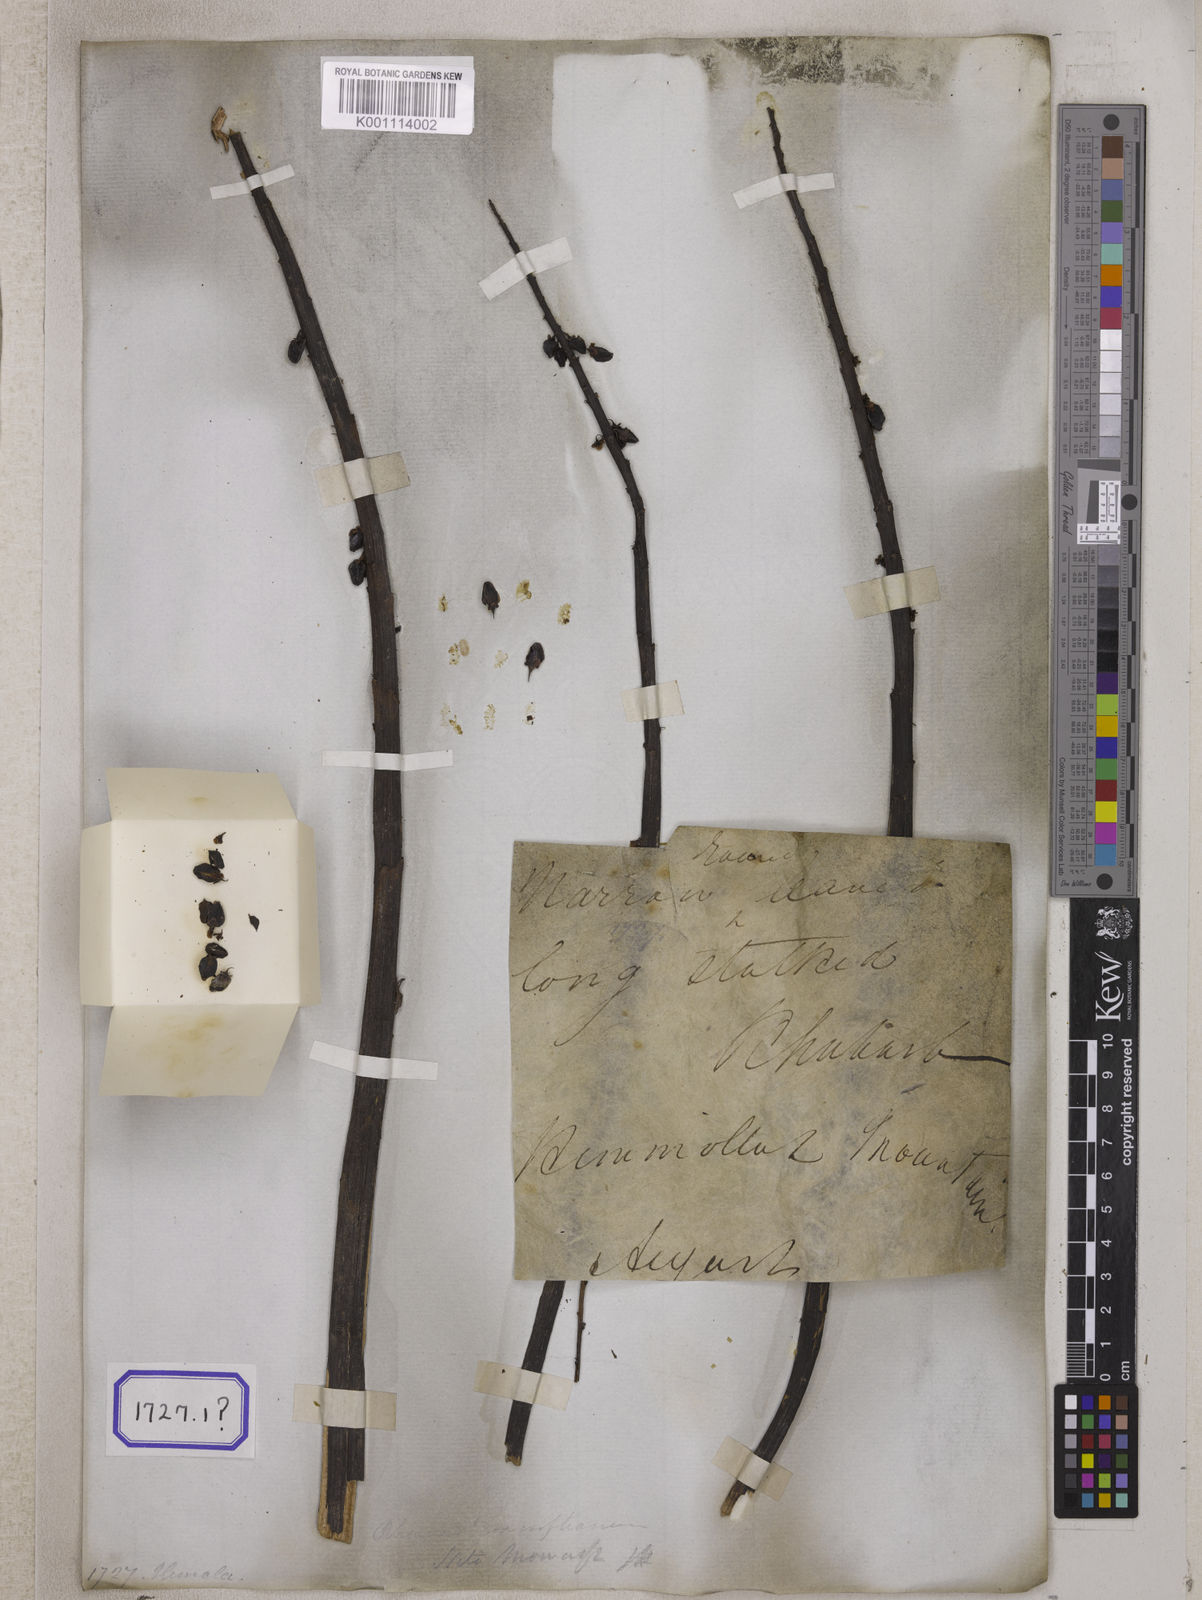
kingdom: Plantae
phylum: Tracheophyta
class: Magnoliopsida
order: Caryophyllales
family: Polygonaceae
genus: Rheum
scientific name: Rheum
